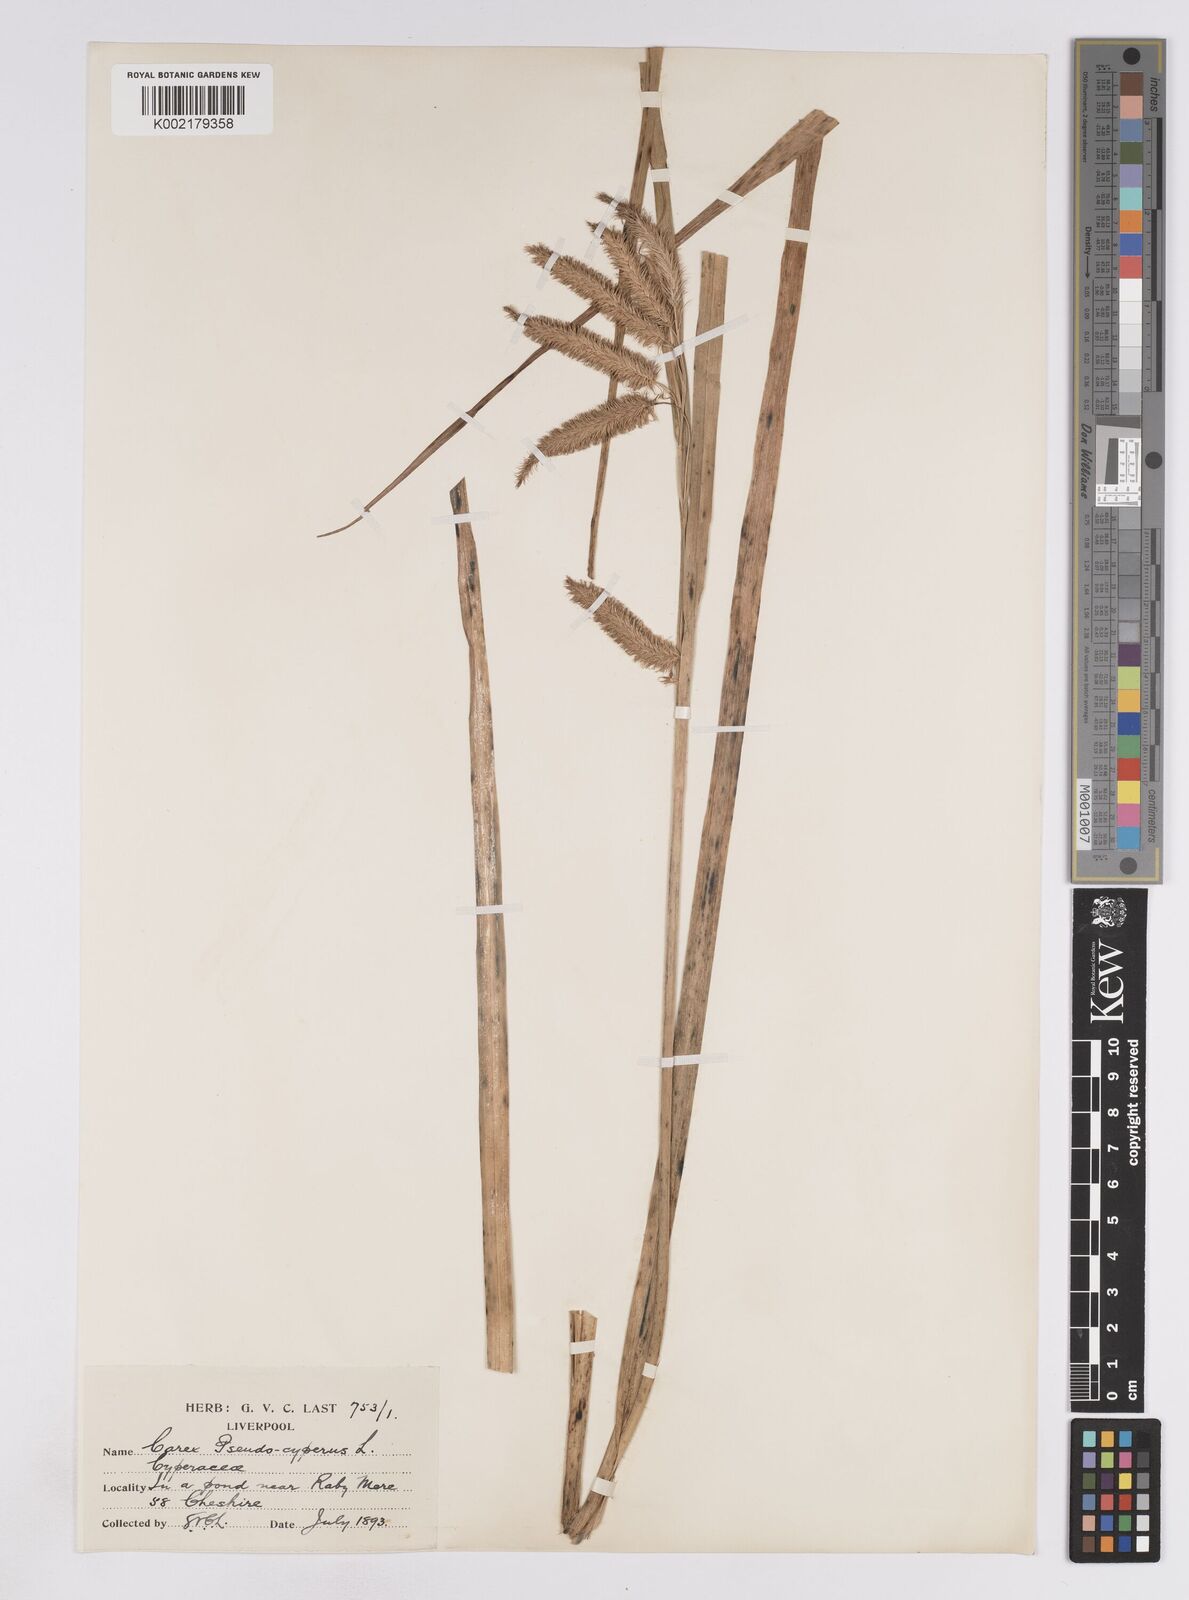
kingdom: Plantae
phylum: Tracheophyta
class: Liliopsida
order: Poales
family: Cyperaceae
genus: Carex
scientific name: Carex pseudocyperus
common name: Cyperus sedge
